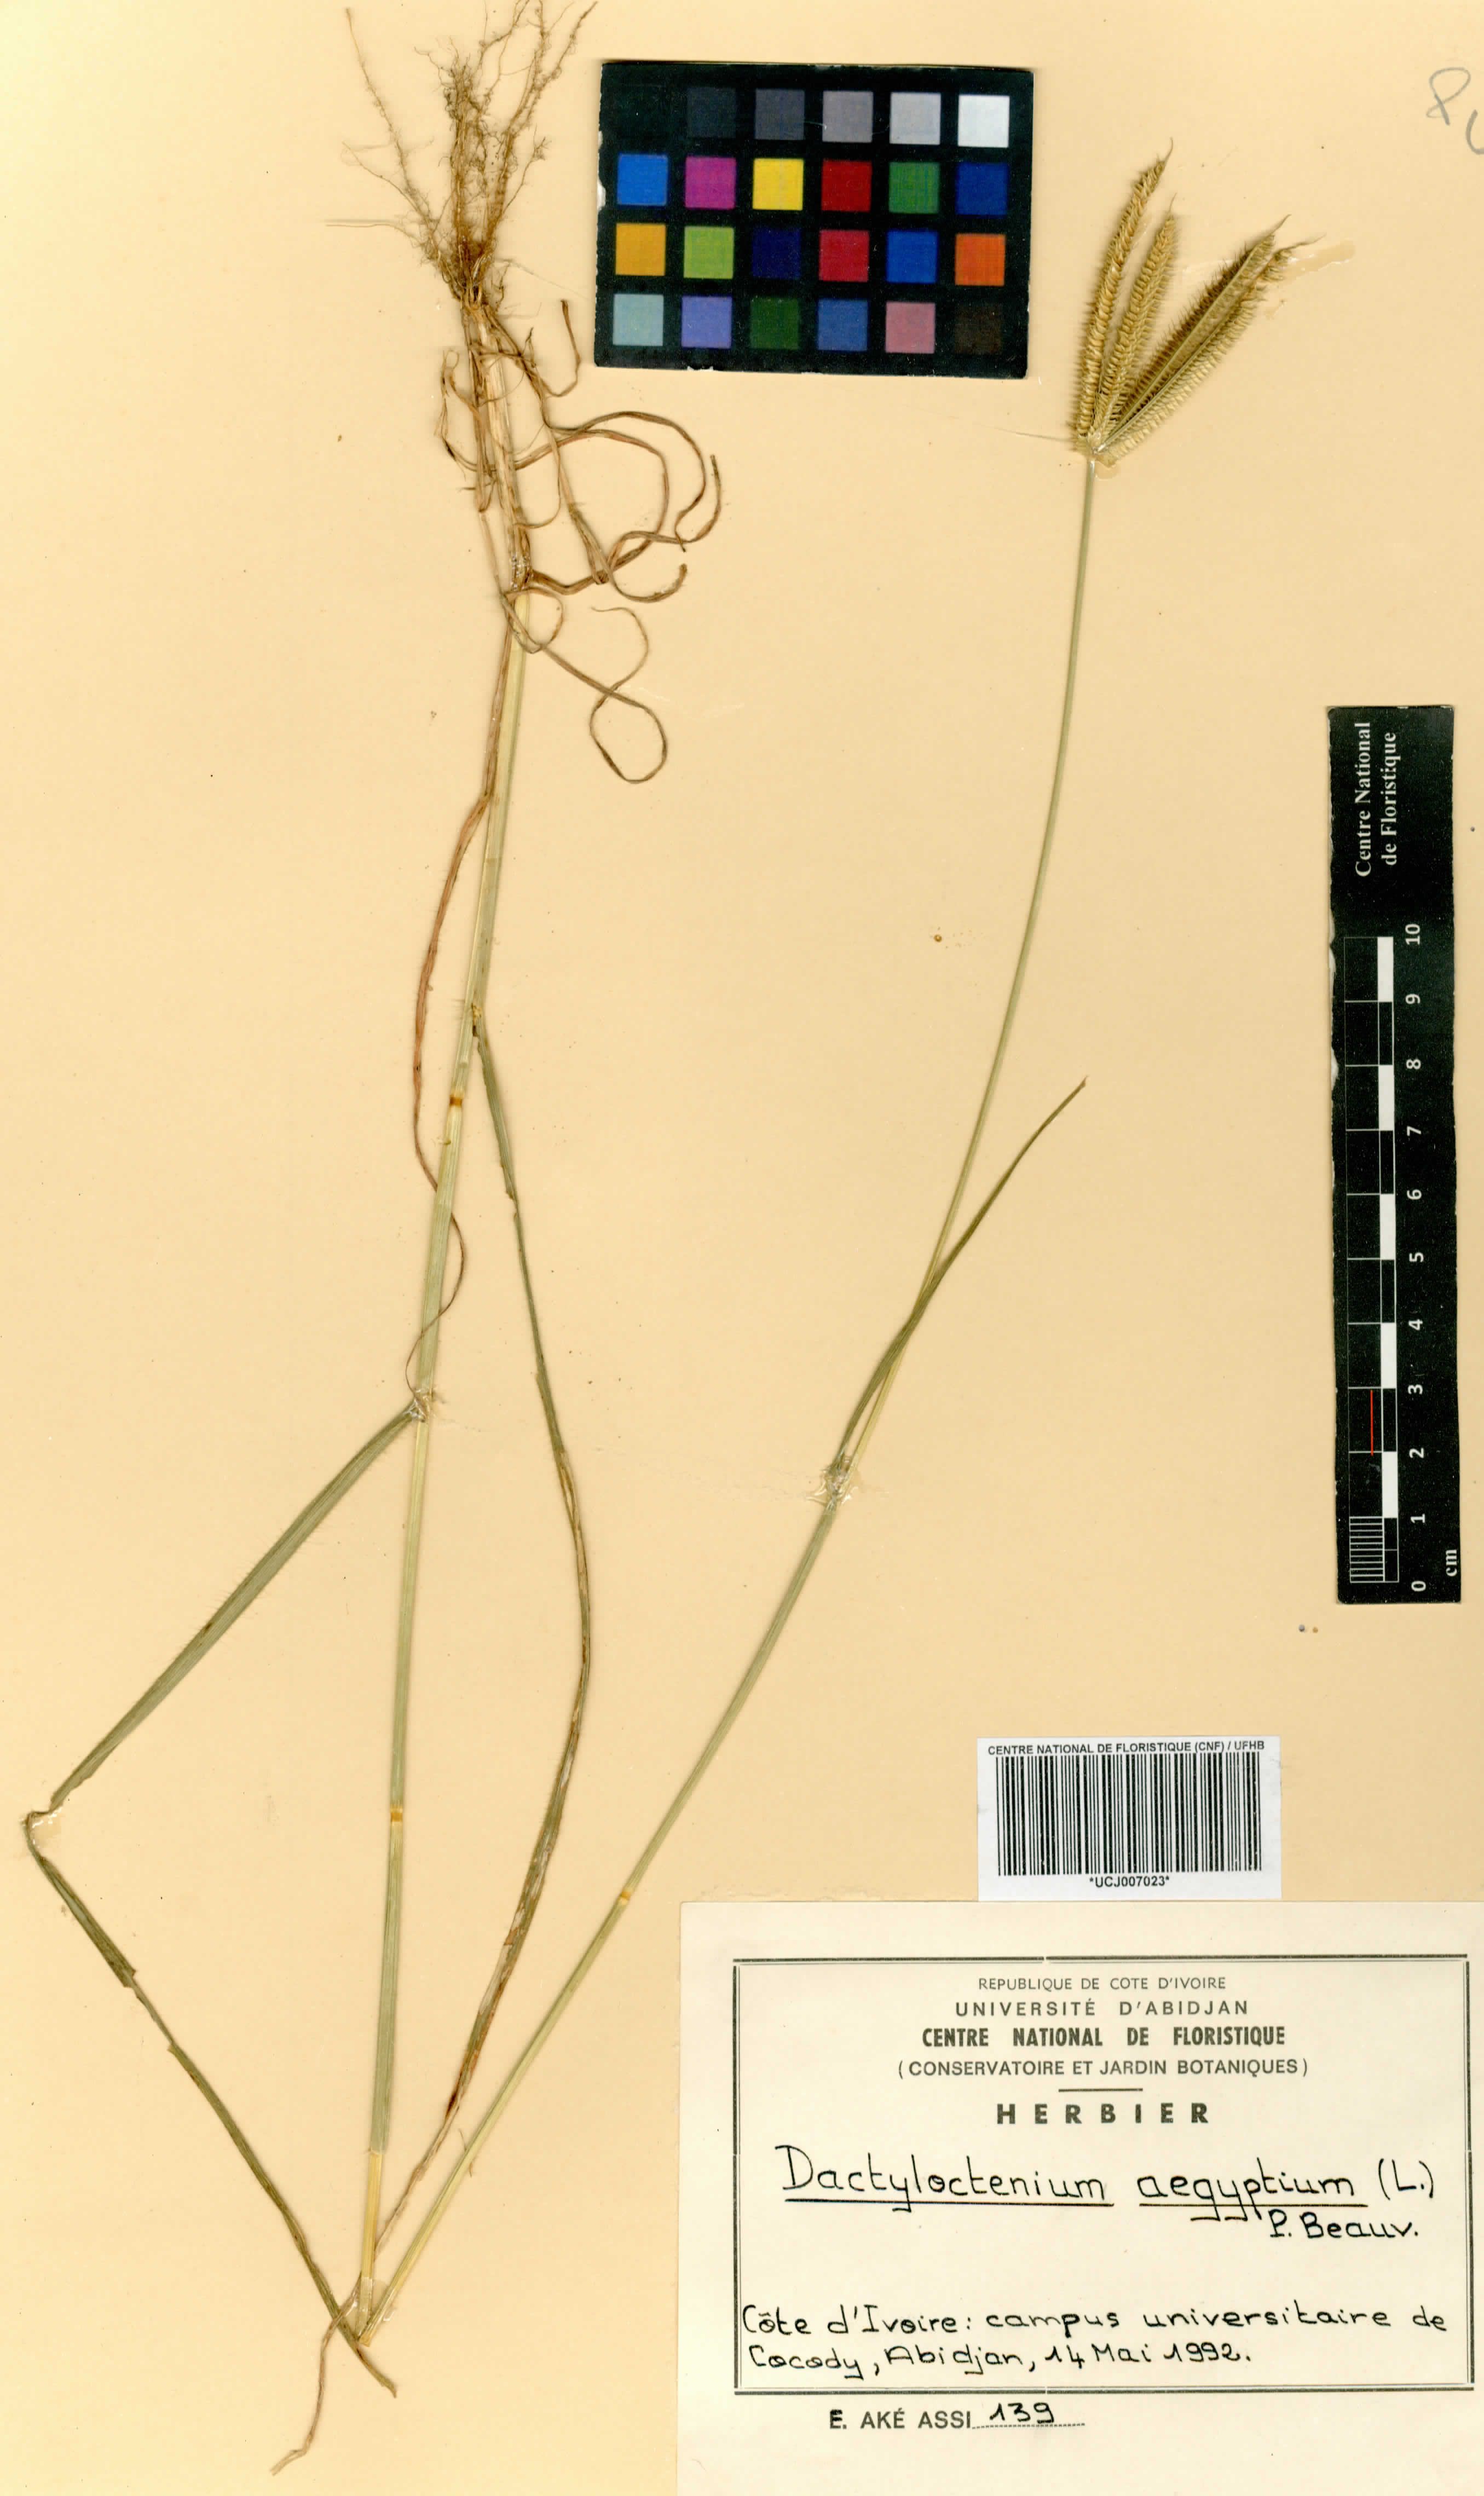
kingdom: Plantae
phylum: Tracheophyta
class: Liliopsida
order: Poales
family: Poaceae
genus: Dactyloctenium
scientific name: Dactyloctenium aegyptium
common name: Egyptian grass
